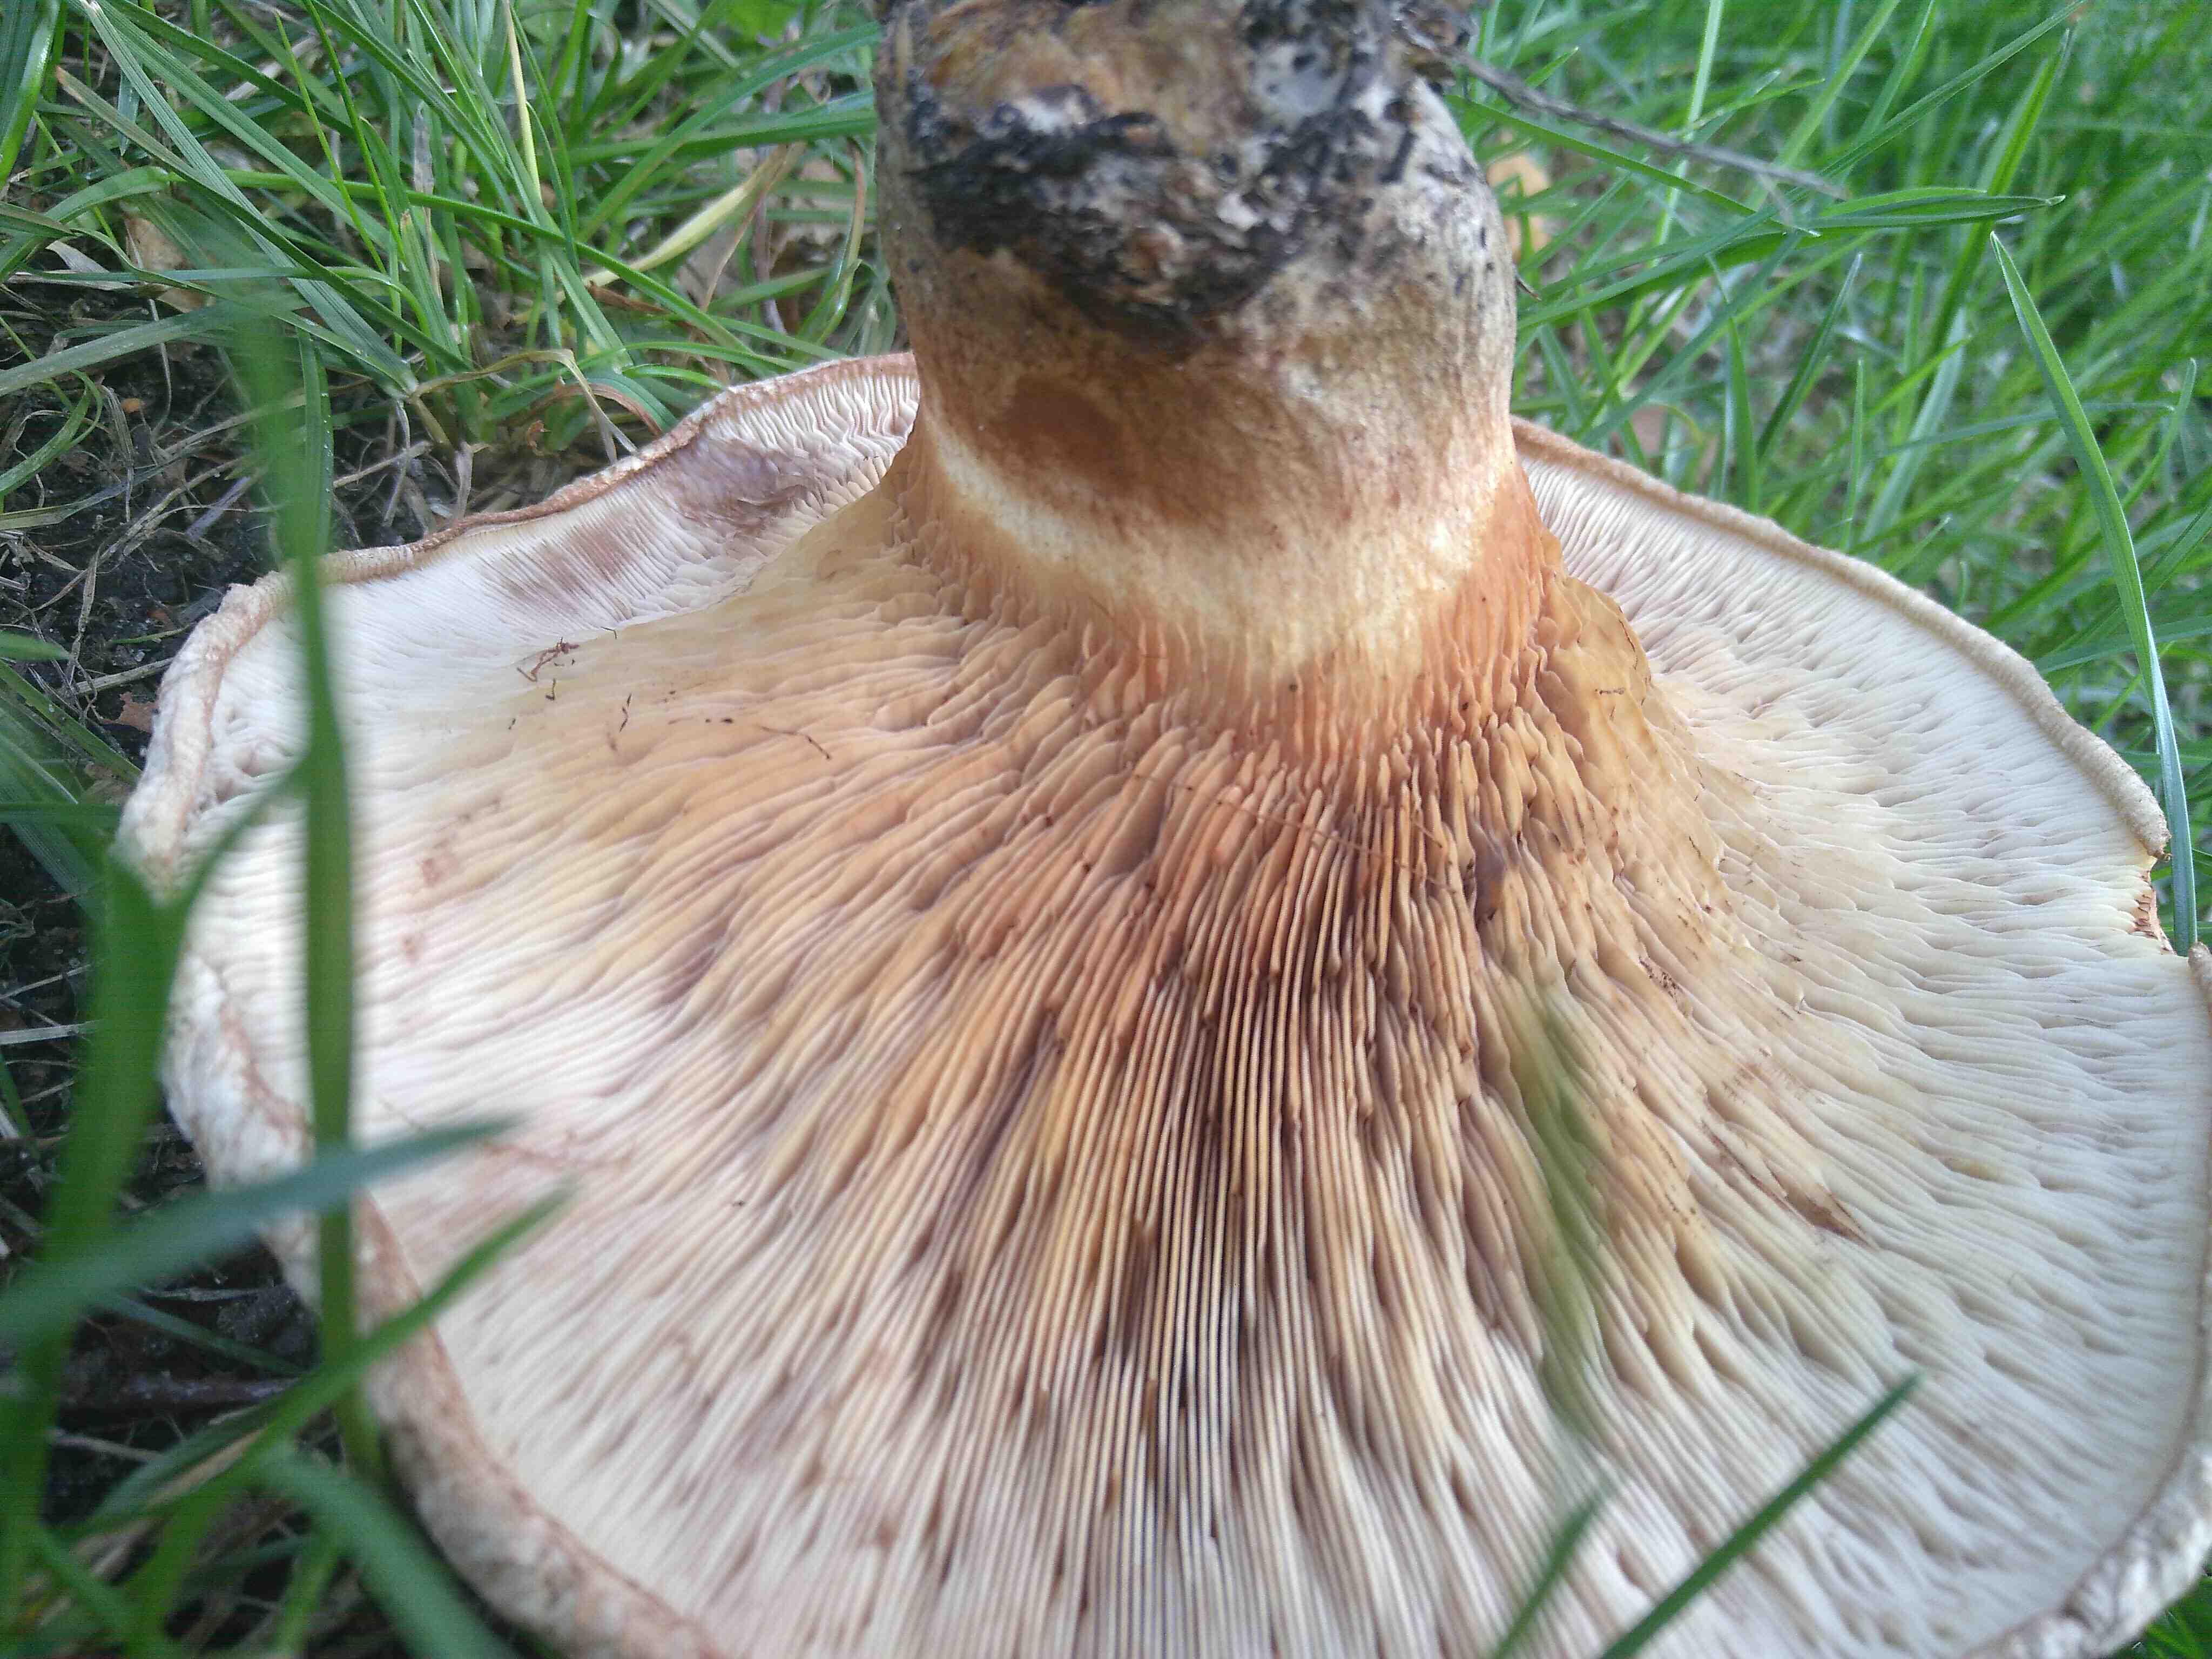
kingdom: Fungi
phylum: Basidiomycota
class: Agaricomycetes
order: Boletales
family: Paxillaceae
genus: Paxillus
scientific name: Paxillus involutus
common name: almindelig netbladhat
